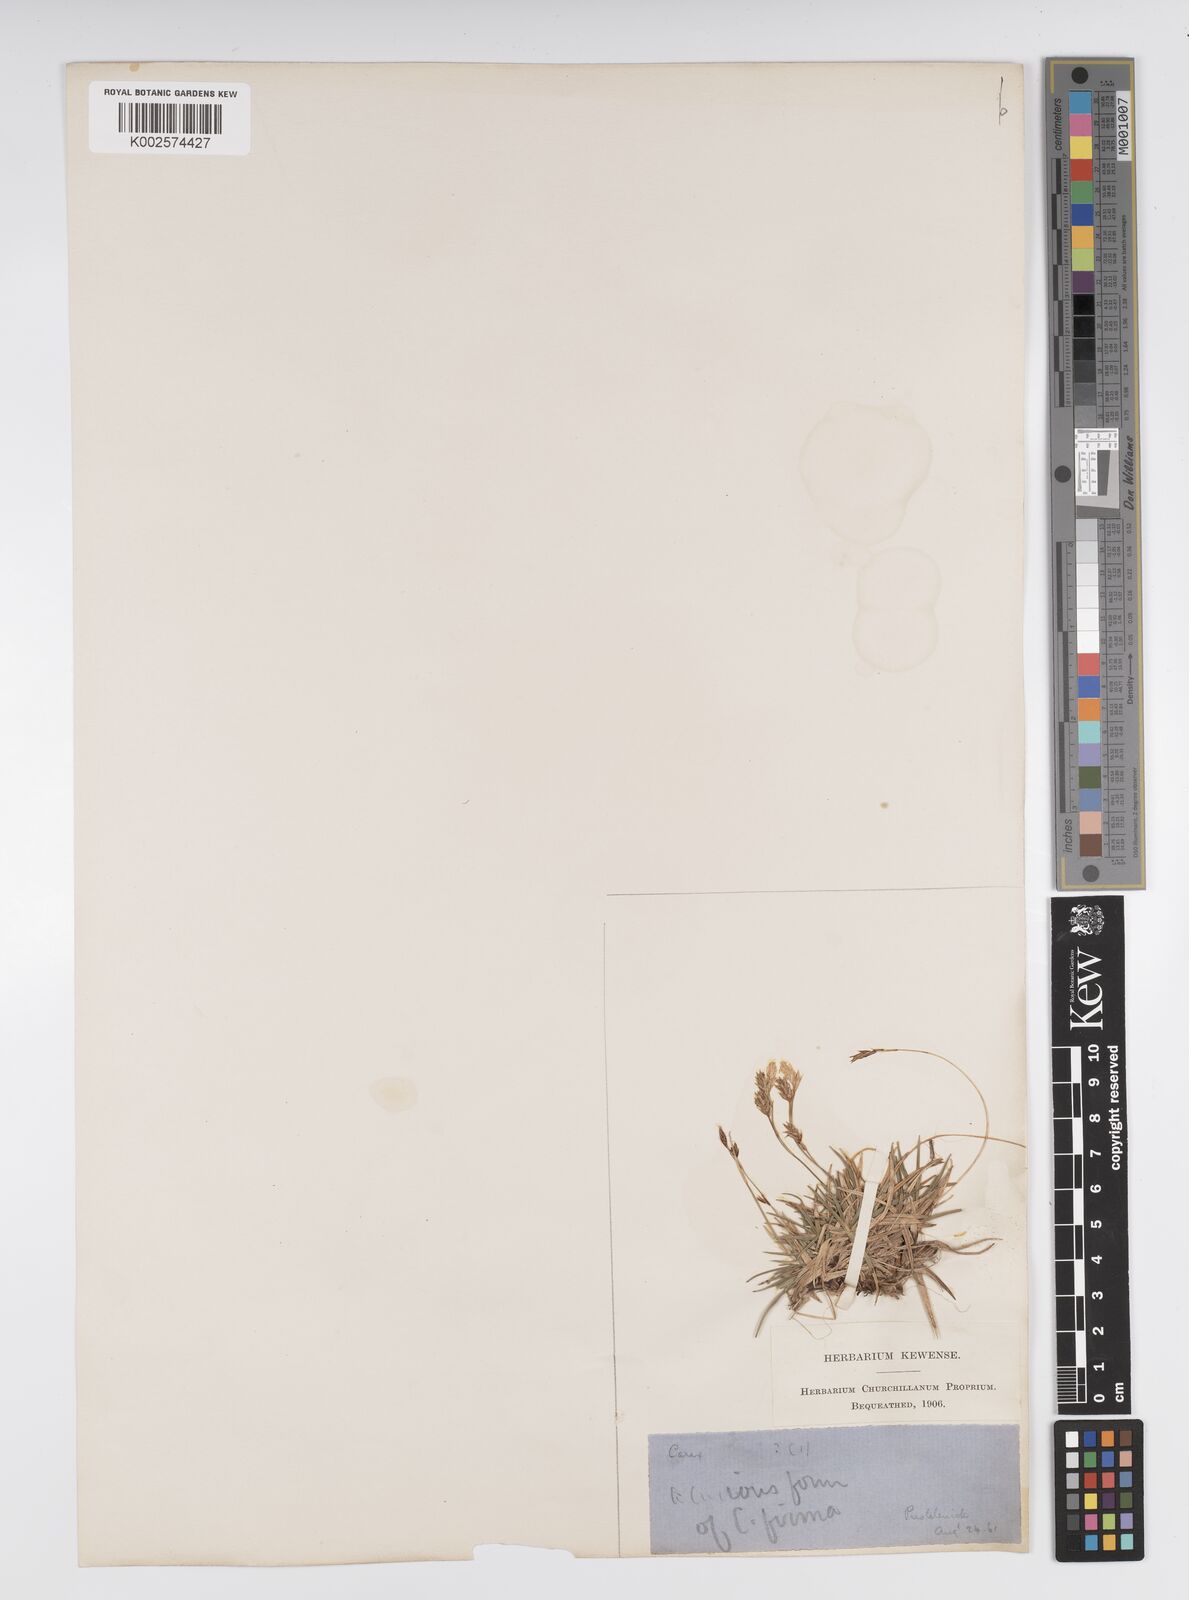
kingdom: Plantae
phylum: Tracheophyta
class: Liliopsida
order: Poales
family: Cyperaceae
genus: Carex
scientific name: Carex firma
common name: Dwarf pillow sedge
